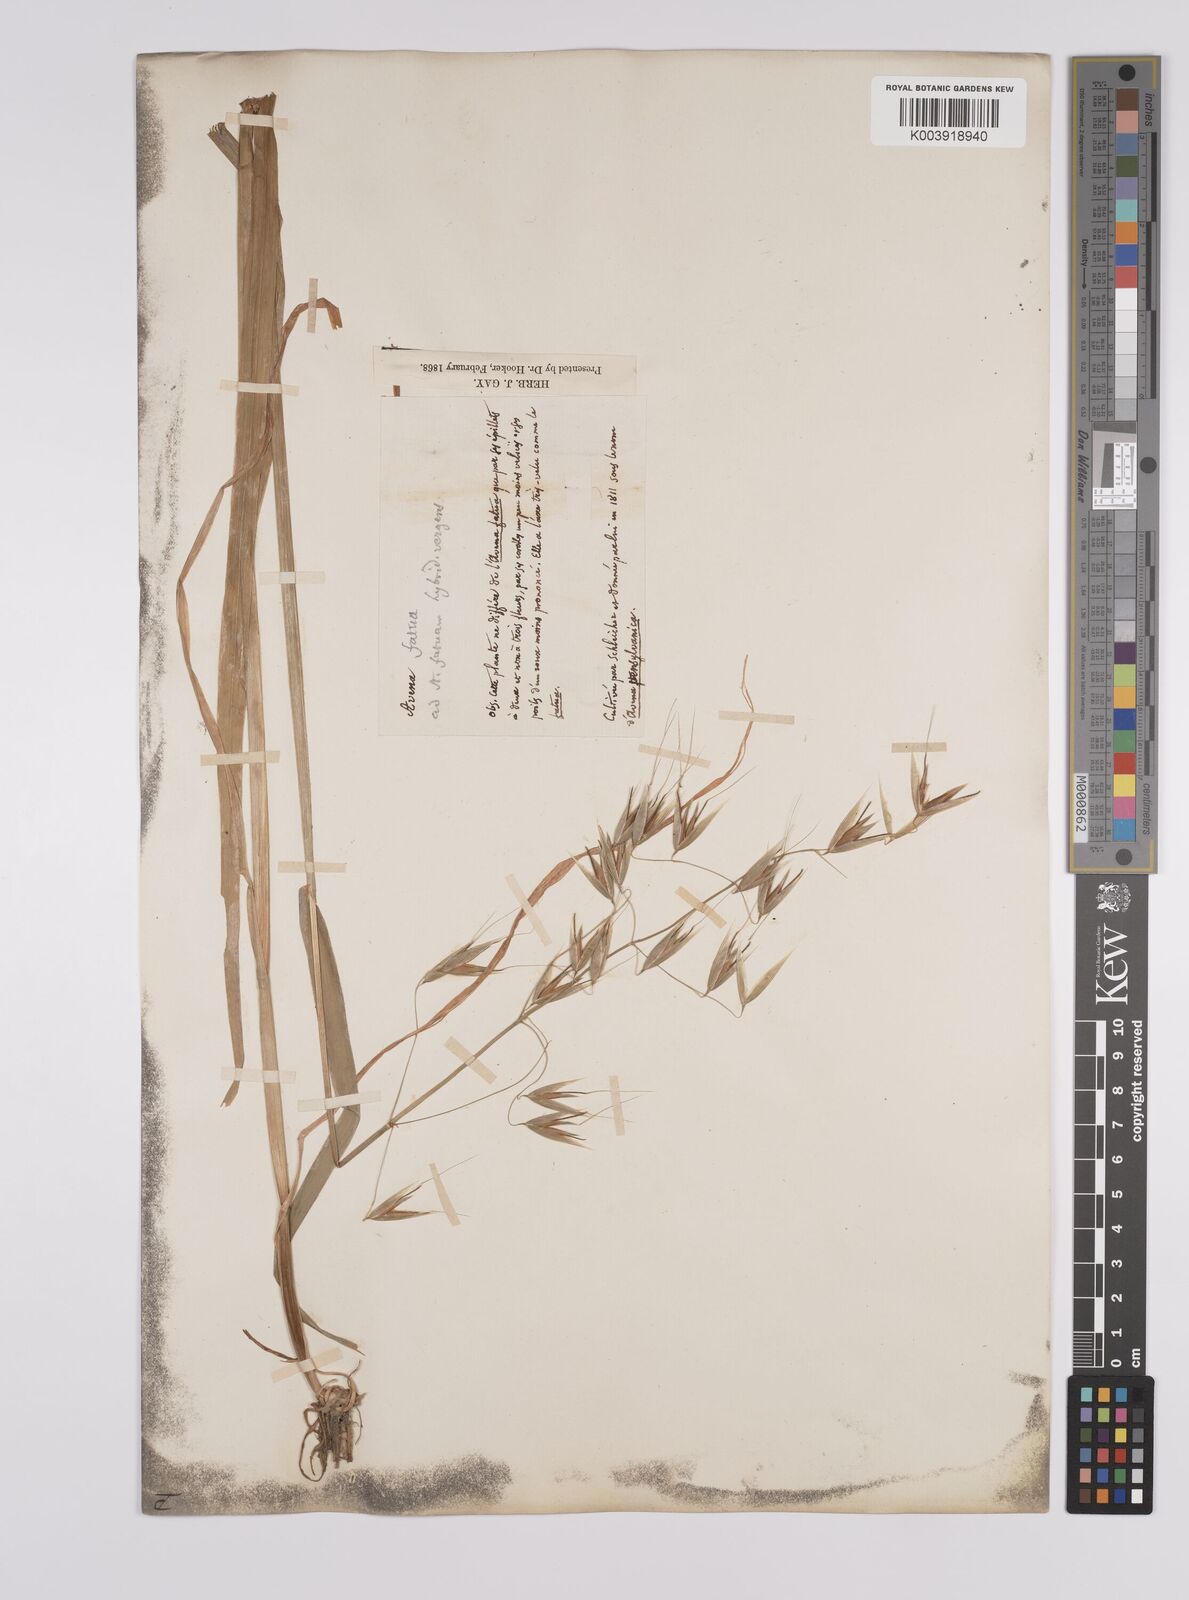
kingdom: Plantae
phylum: Tracheophyta
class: Liliopsida
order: Poales
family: Poaceae
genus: Avena
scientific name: Avena fatua
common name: Wild oat
